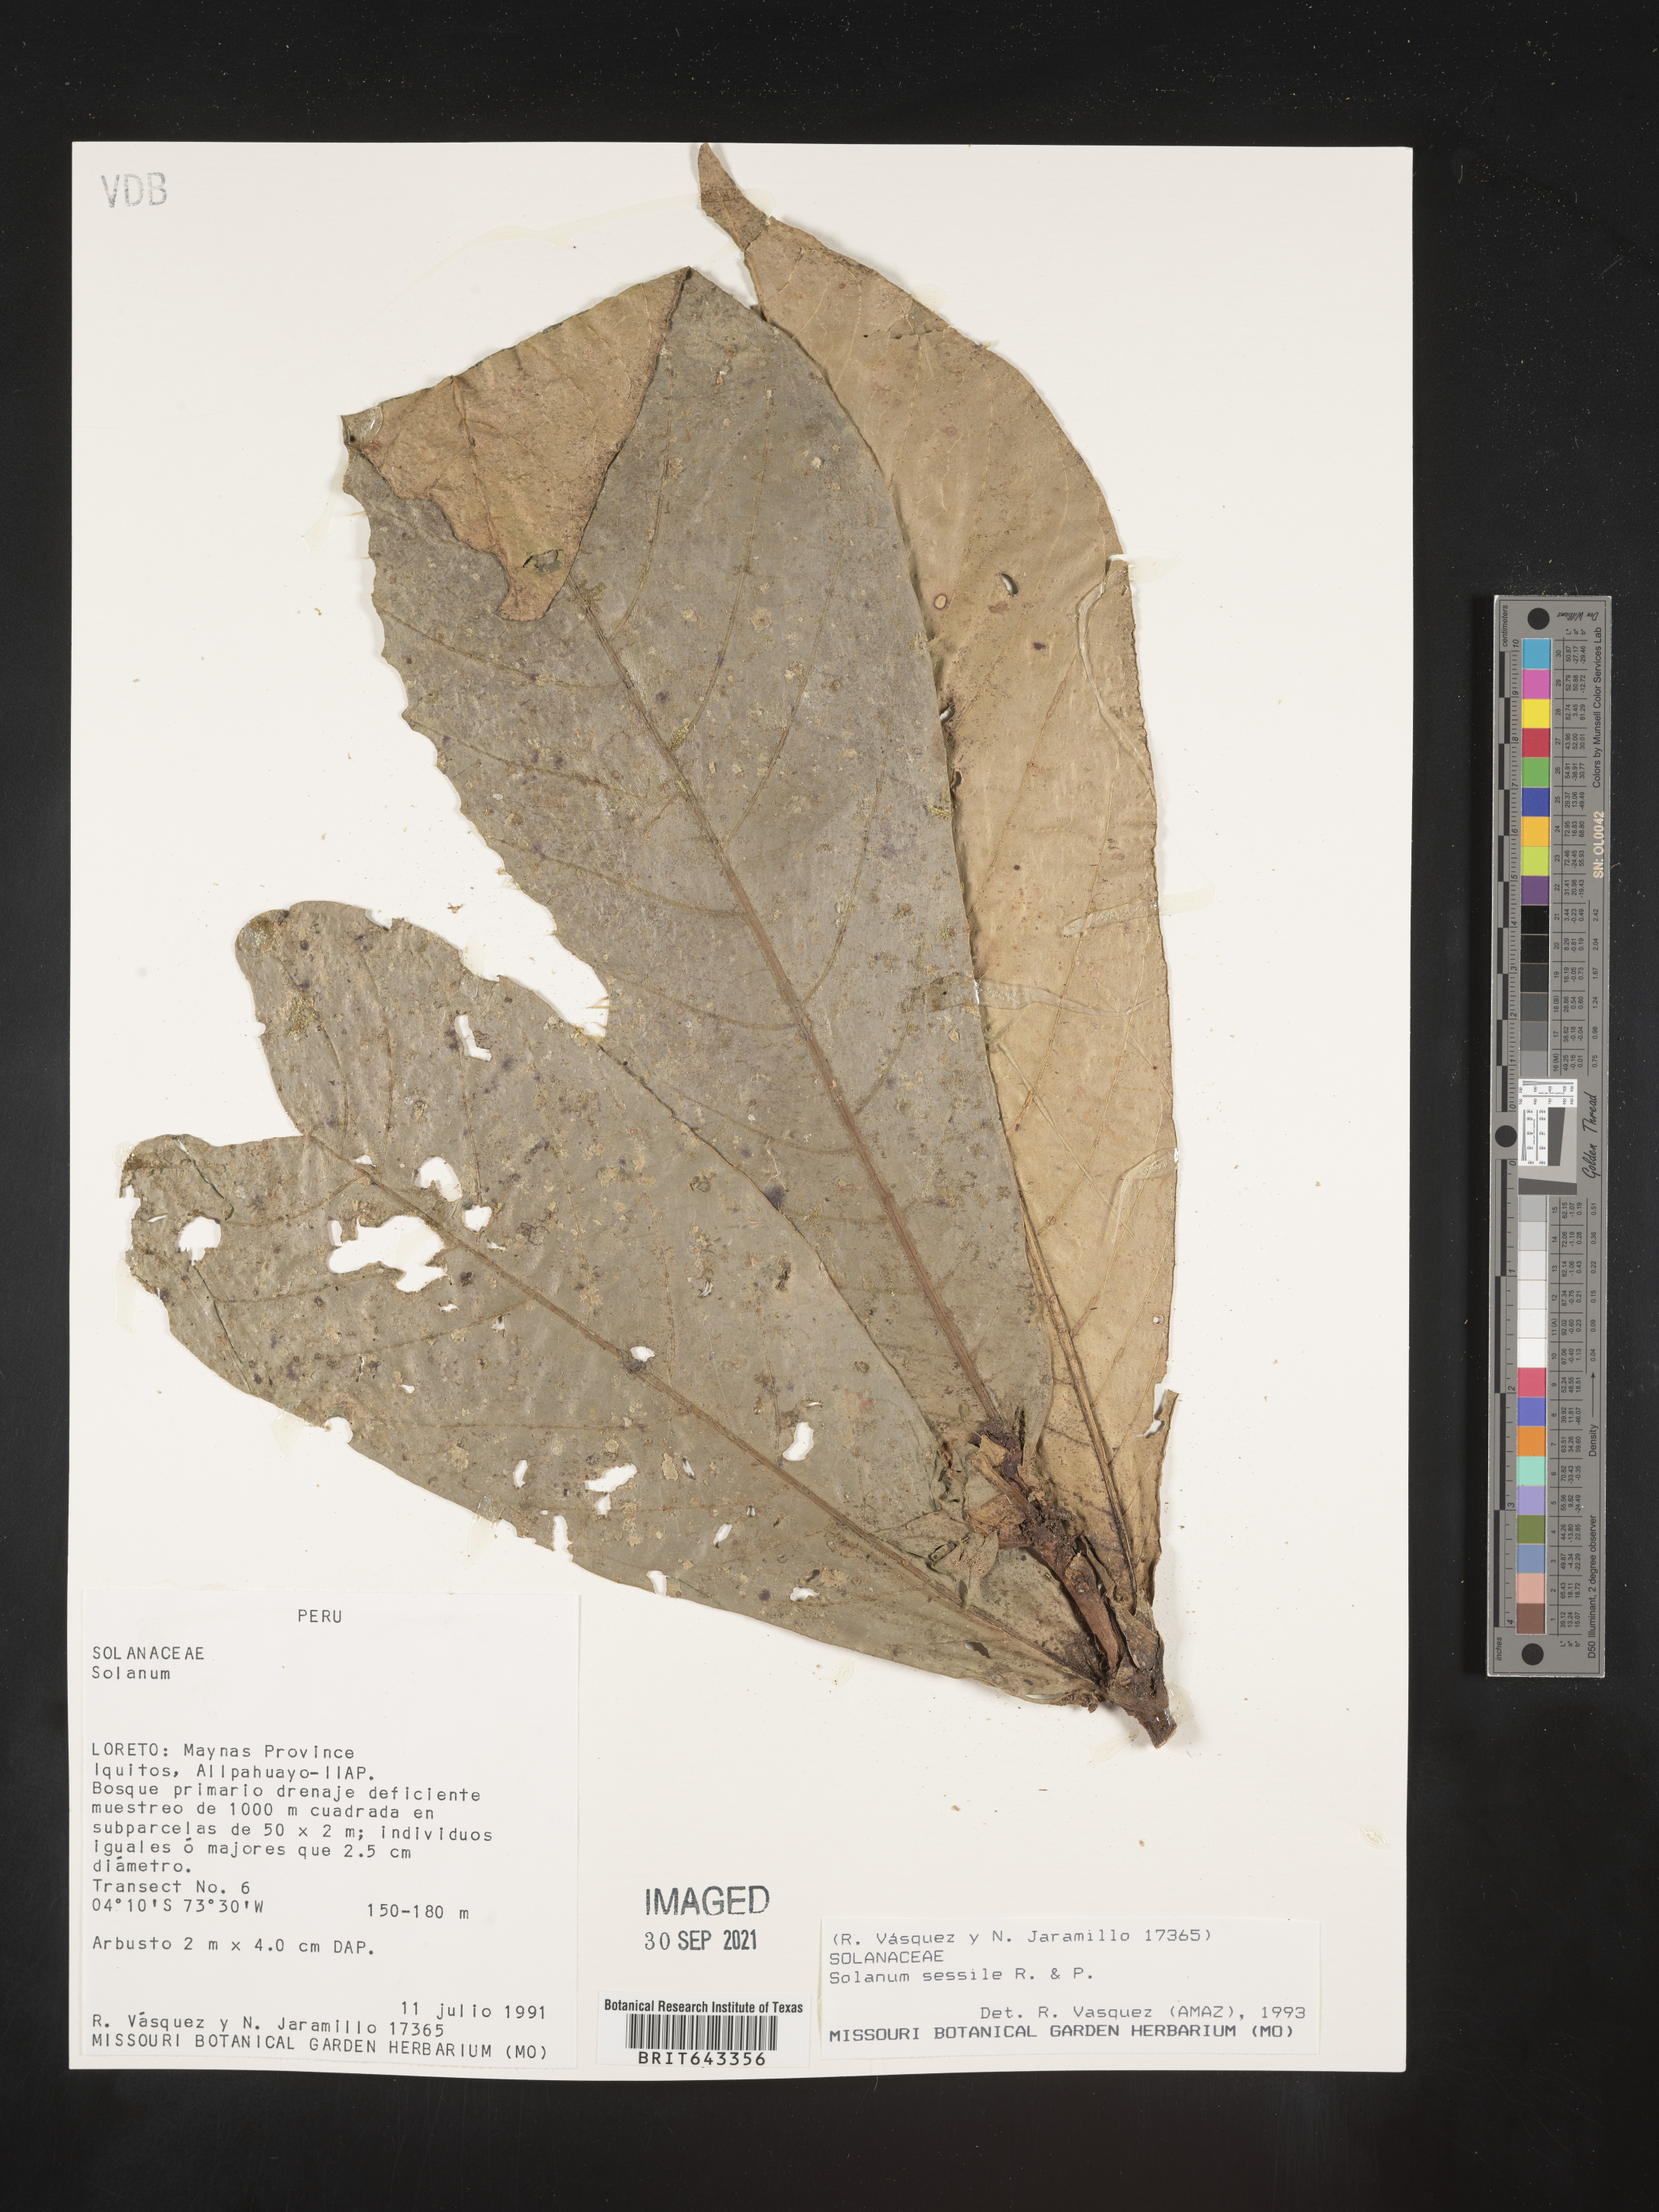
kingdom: Plantae
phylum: Tracheophyta
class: Magnoliopsida
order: Solanales
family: Solanaceae
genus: Solanum
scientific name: Solanum
